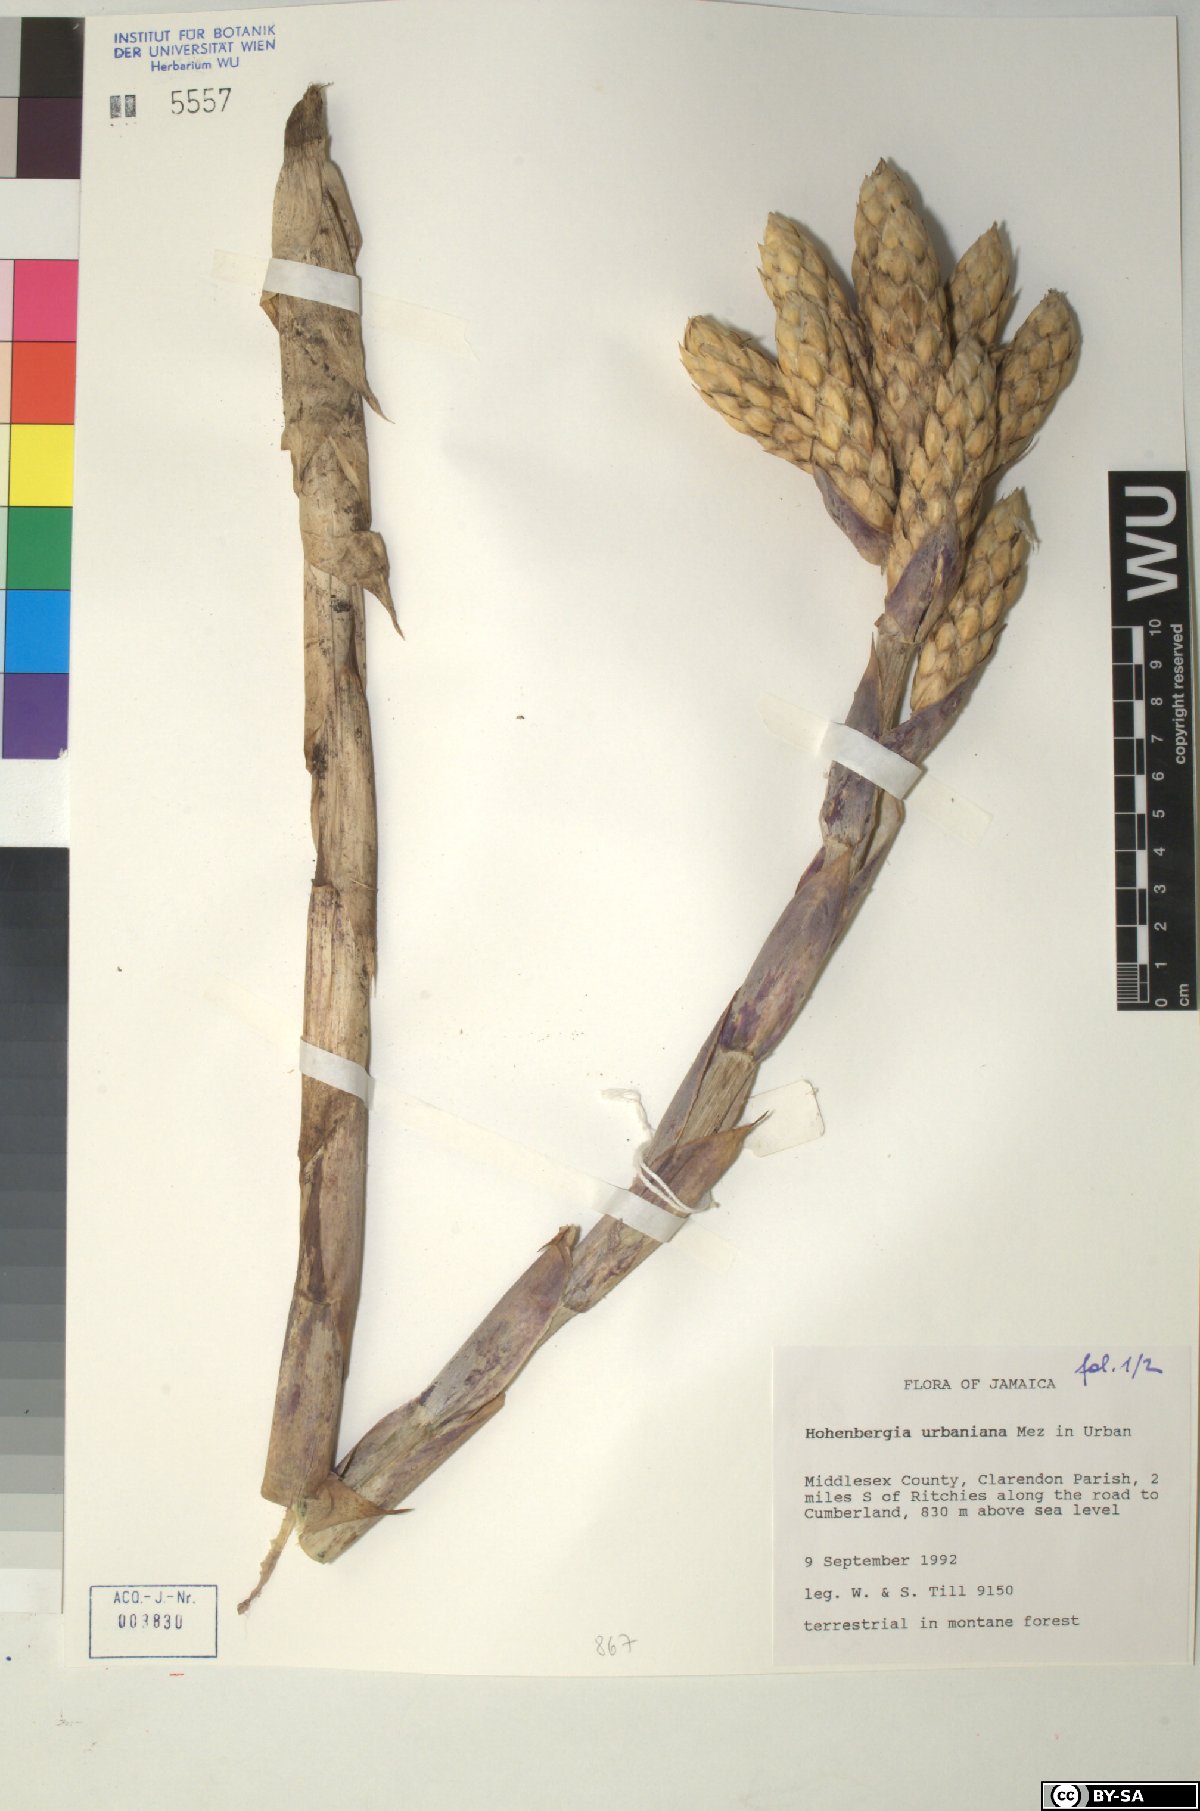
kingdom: Plantae
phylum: Tracheophyta
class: Liliopsida
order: Poales
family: Bromeliaceae
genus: Wittmackia
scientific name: Wittmackia urbaniana
